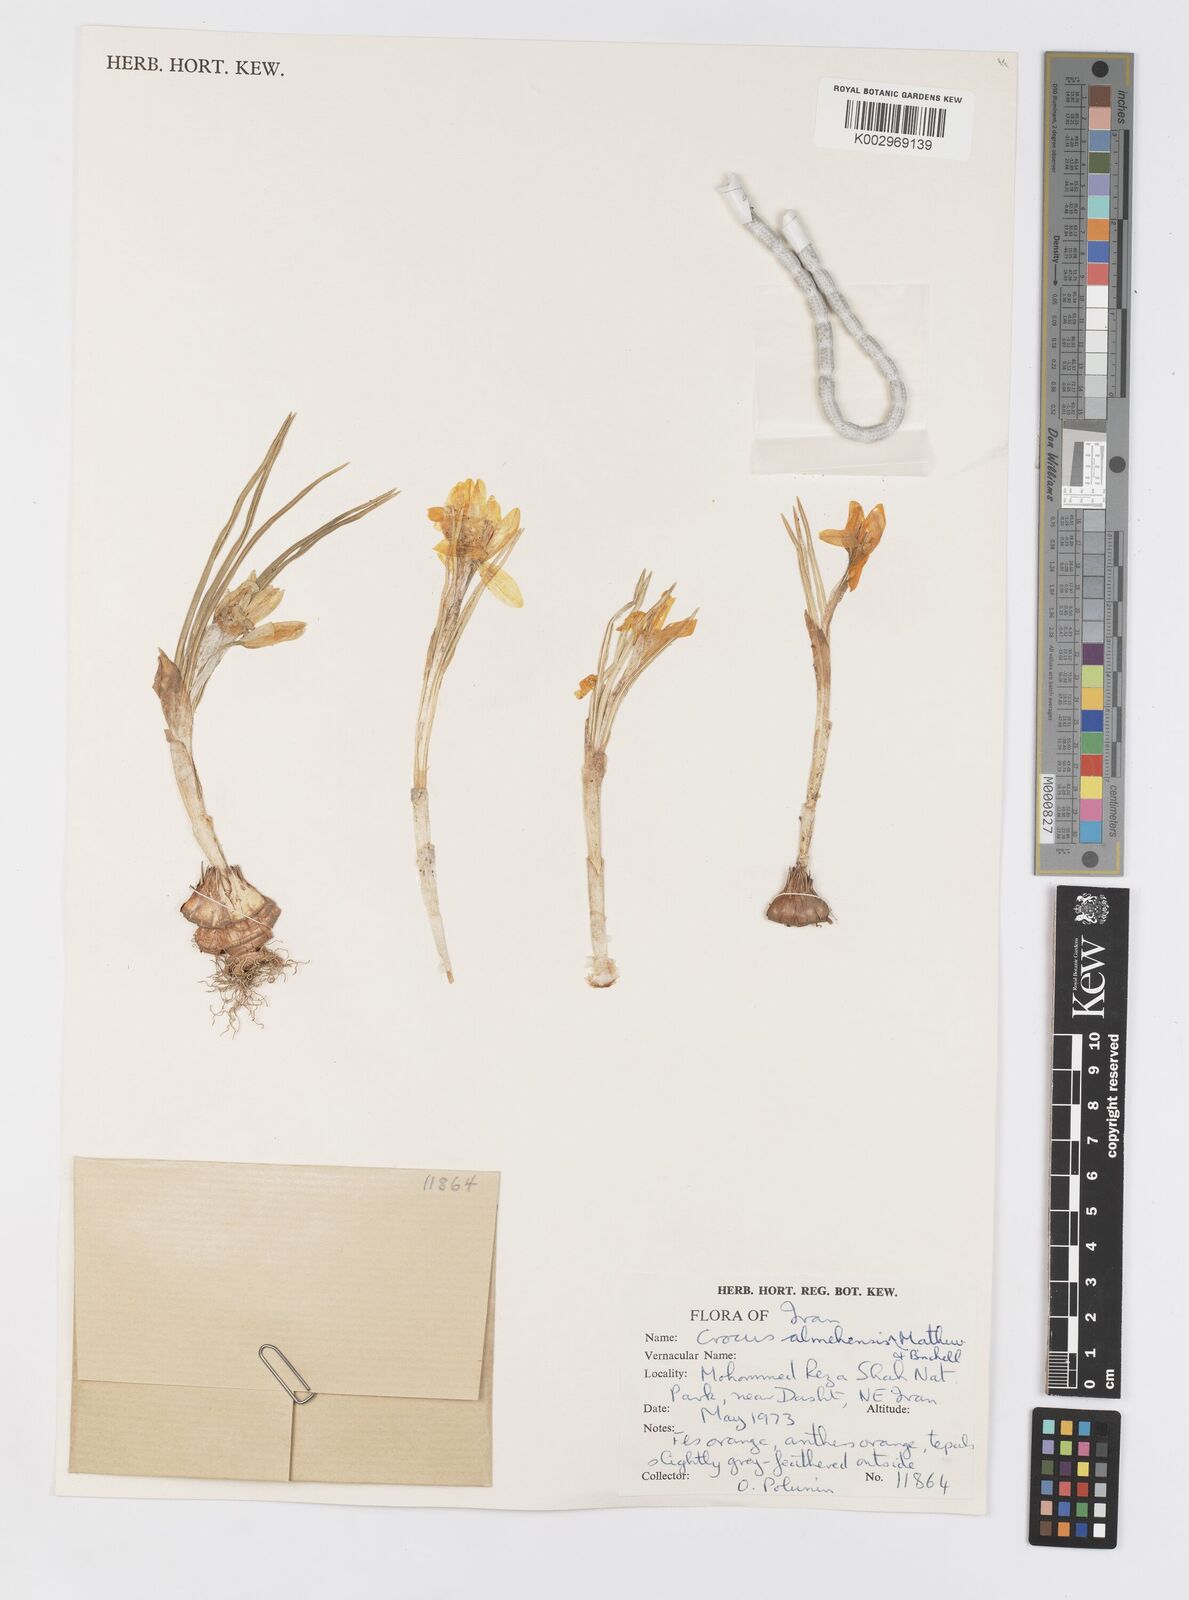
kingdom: Plantae
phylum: Tracheophyta
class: Liliopsida
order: Asparagales
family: Iridaceae
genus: Crocus
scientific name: Crocus almehensis
